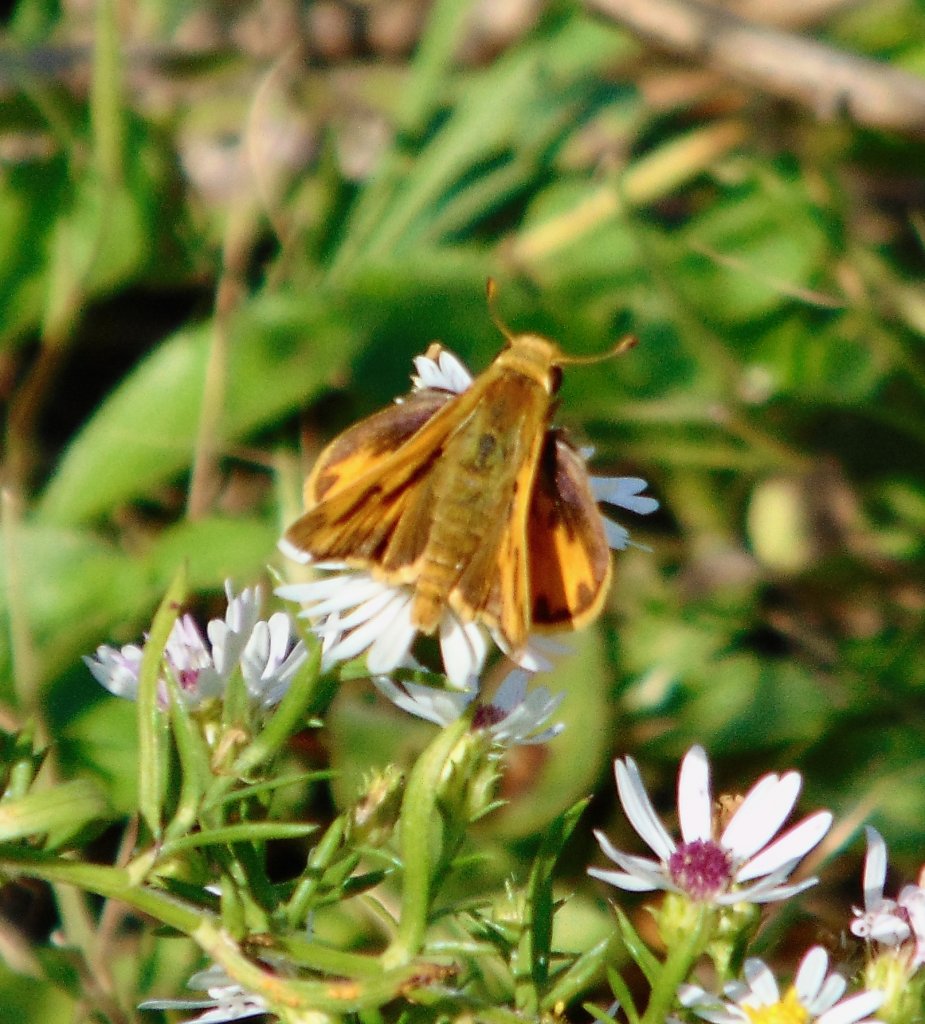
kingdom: Animalia
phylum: Arthropoda
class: Insecta
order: Lepidoptera
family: Hesperiidae
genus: Hylephila
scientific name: Hylephila phyleus
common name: Fiery Skipper
